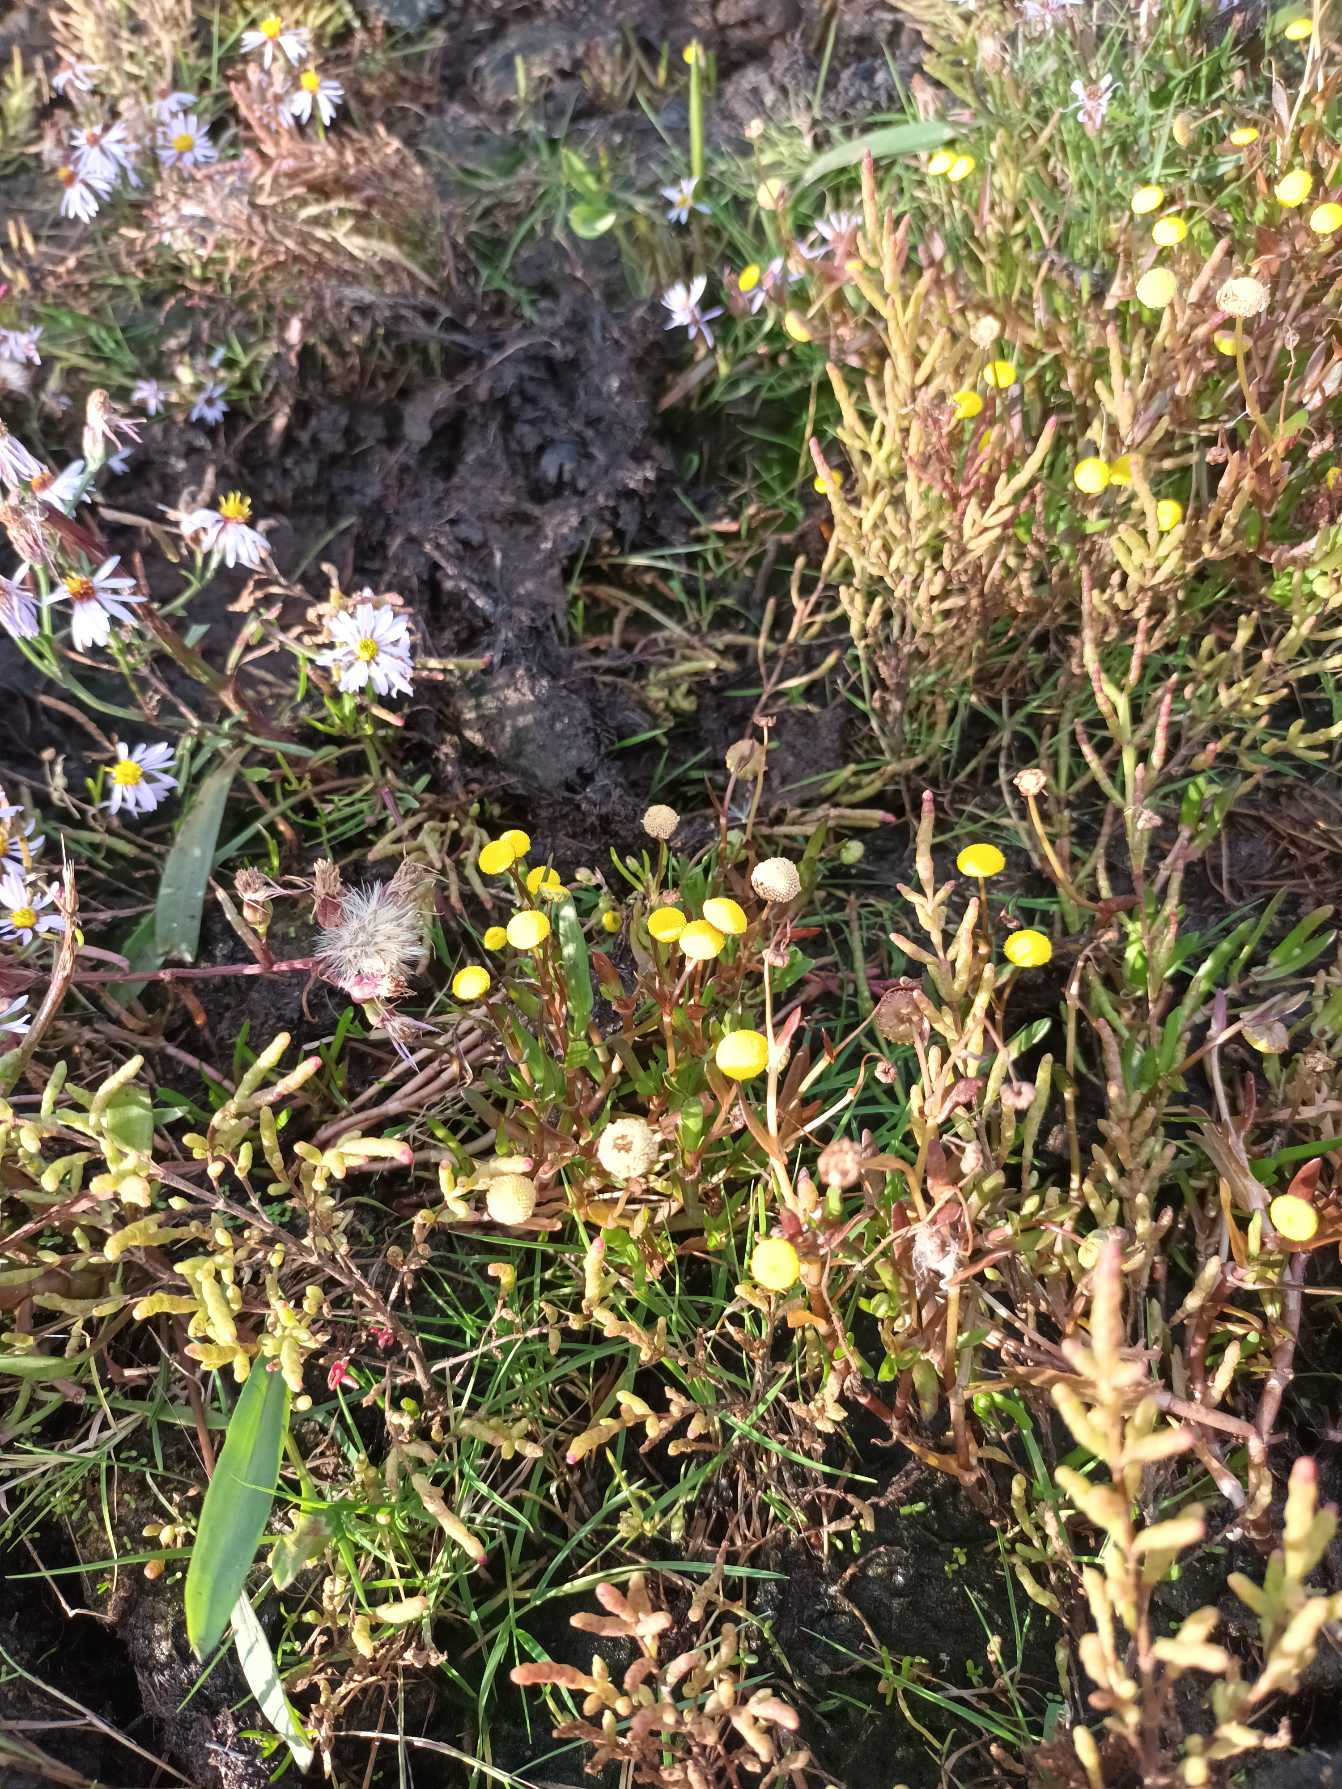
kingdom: Plantae
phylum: Tracheophyta
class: Magnoliopsida
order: Asterales
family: Asteraceae
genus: Cotula
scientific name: Cotula coronopifolia
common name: Firkløft
